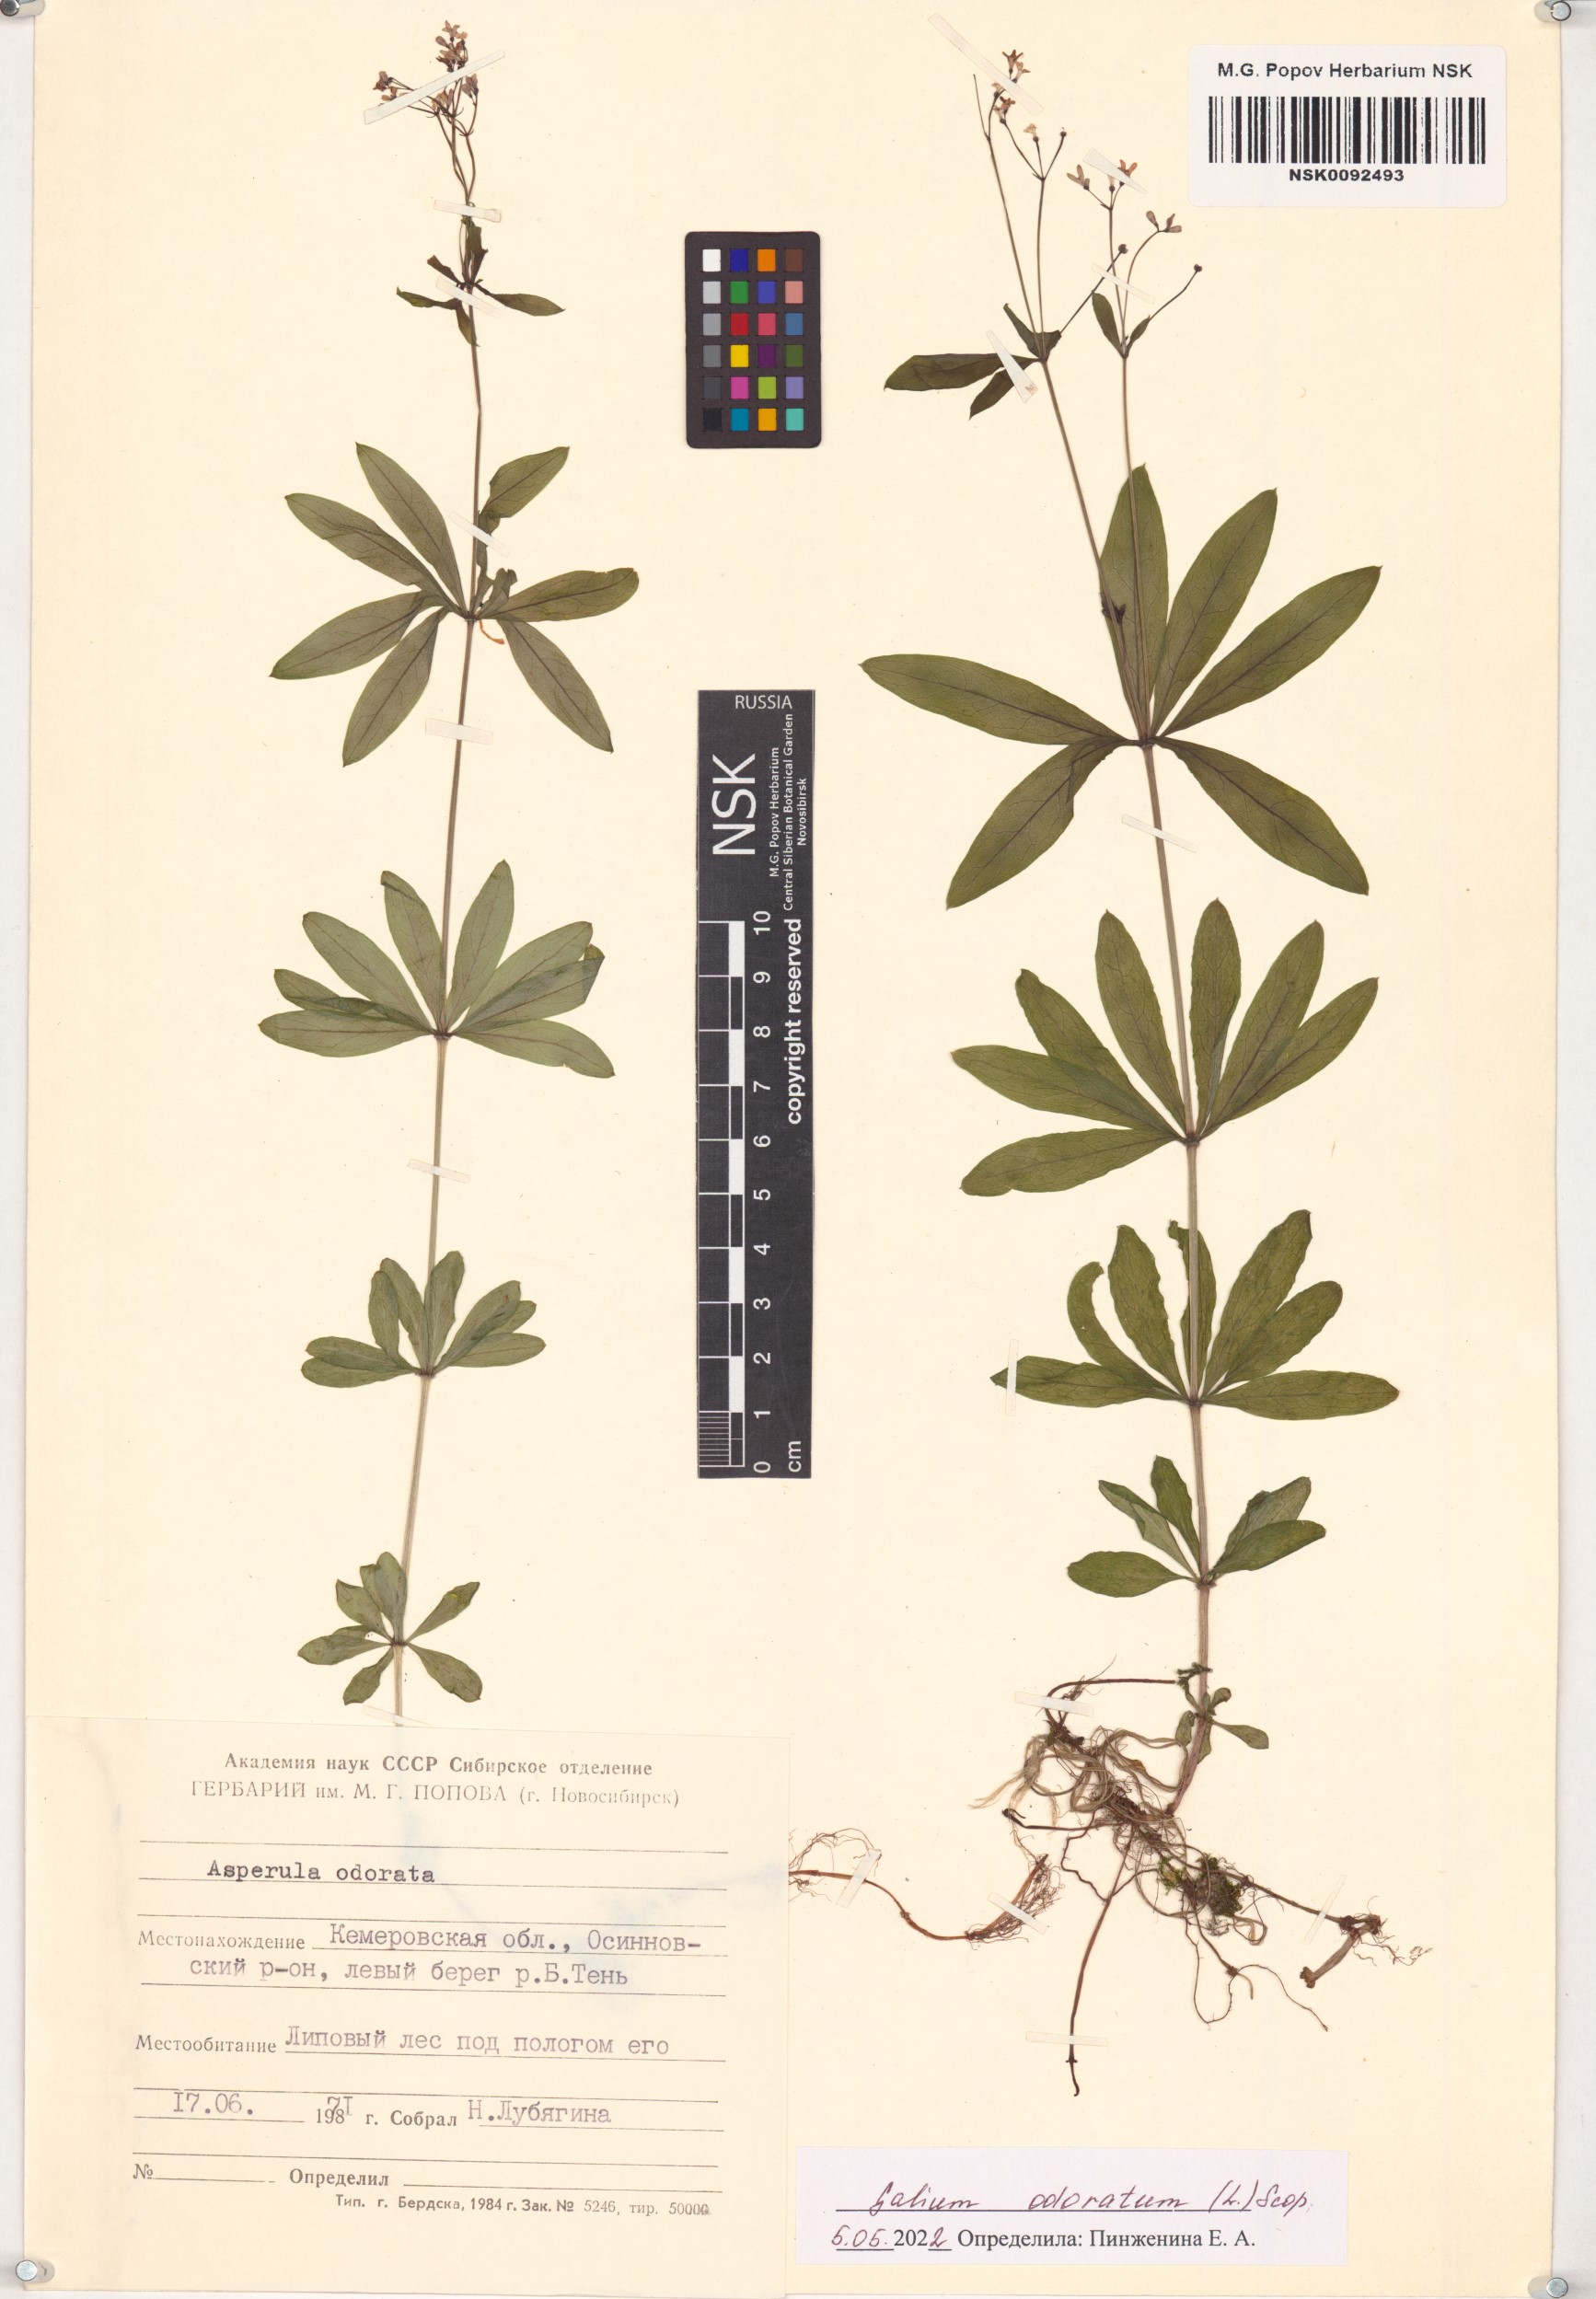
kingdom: Plantae
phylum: Tracheophyta
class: Magnoliopsida
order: Gentianales
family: Rubiaceae
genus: Galium
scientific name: Galium odoratum
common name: Sweet woodruff
